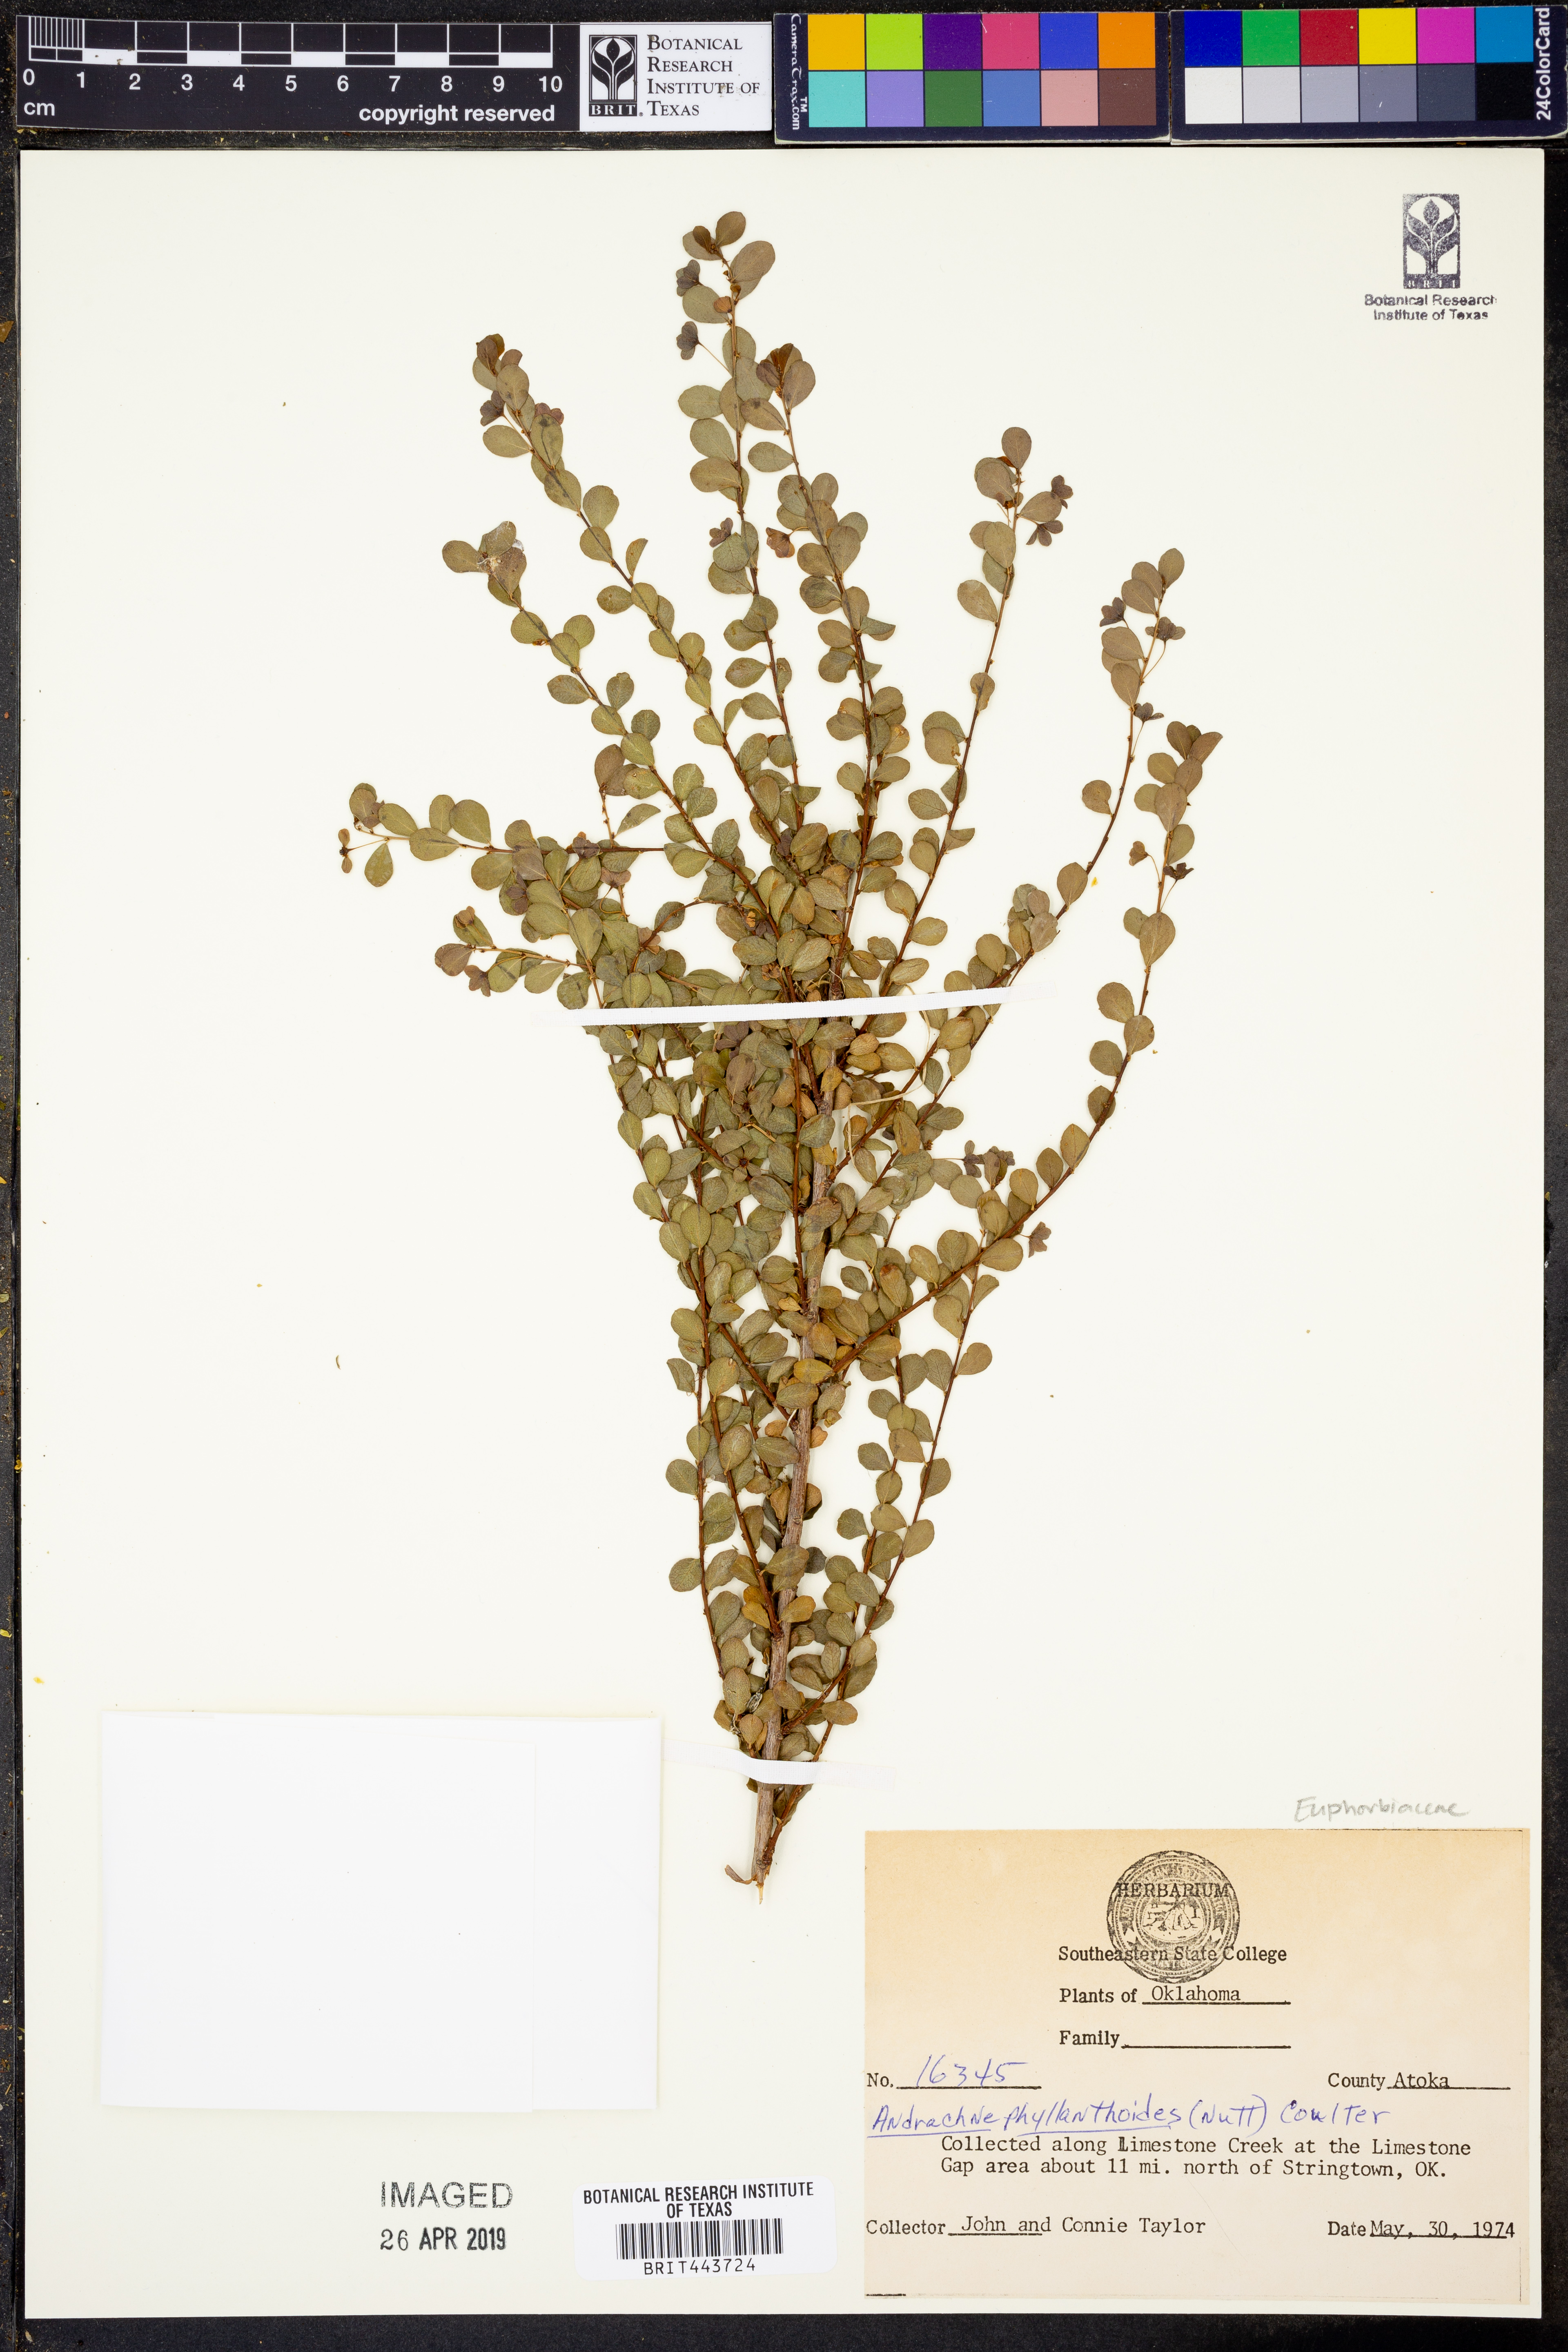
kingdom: Plantae
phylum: Tracheophyta
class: Magnoliopsida
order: Malpighiales
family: Phyllanthaceae
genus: Phyllanthopsis
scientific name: Phyllanthopsis phyllanthoides
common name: Missouri maidenbush
